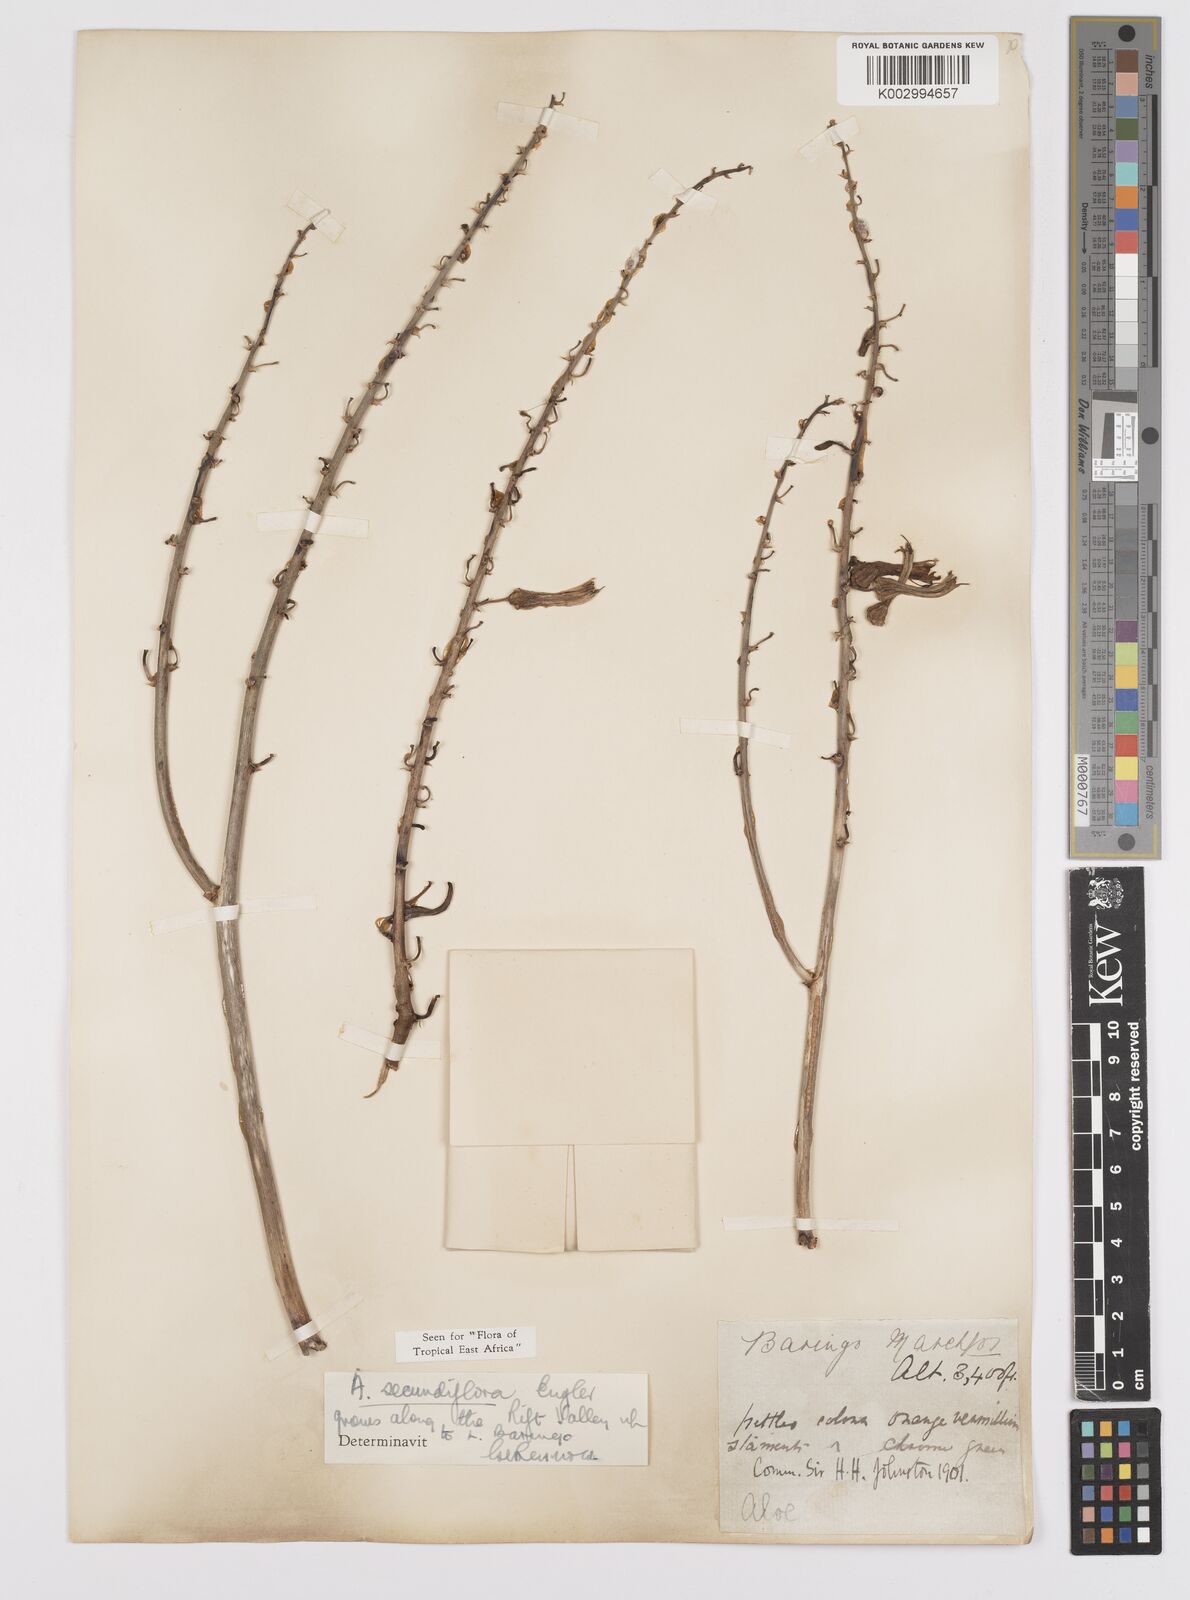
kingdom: Plantae
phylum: Tracheophyta
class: Liliopsida
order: Asparagales
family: Asphodelaceae
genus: Aloe
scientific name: Aloe secundiflora
